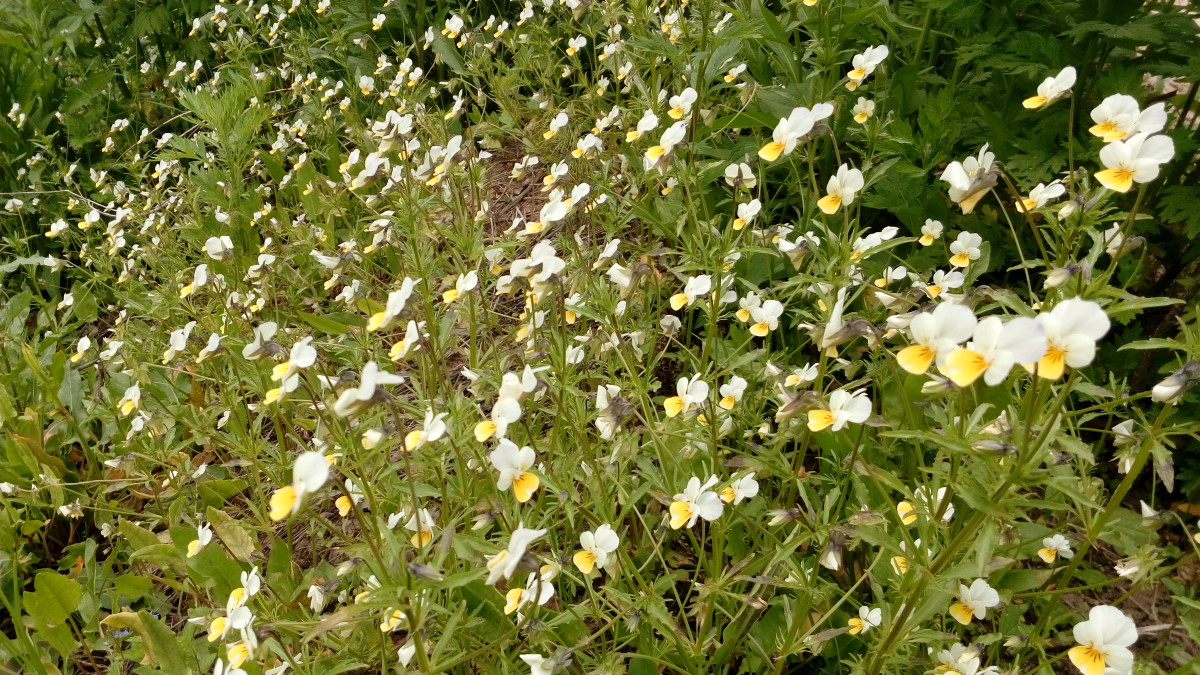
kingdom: Plantae
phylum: Tracheophyta
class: Magnoliopsida
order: Malpighiales
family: Violaceae
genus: Viola
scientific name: Viola arvensis
